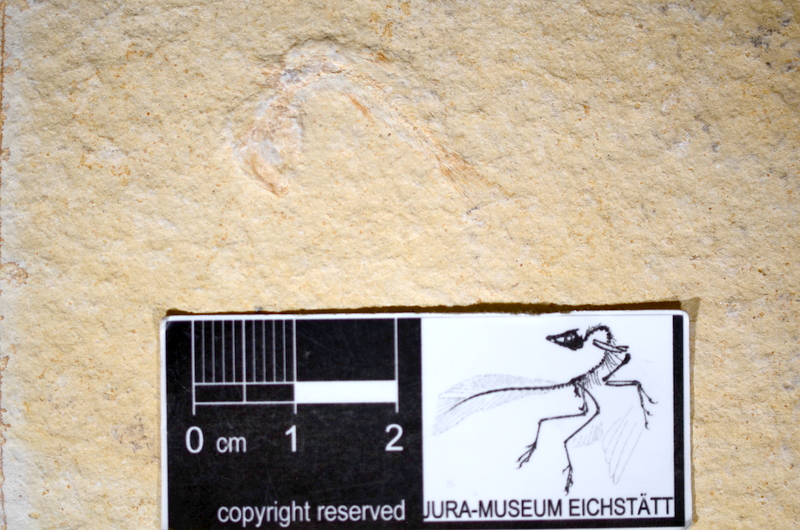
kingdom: Animalia
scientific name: Animalia
